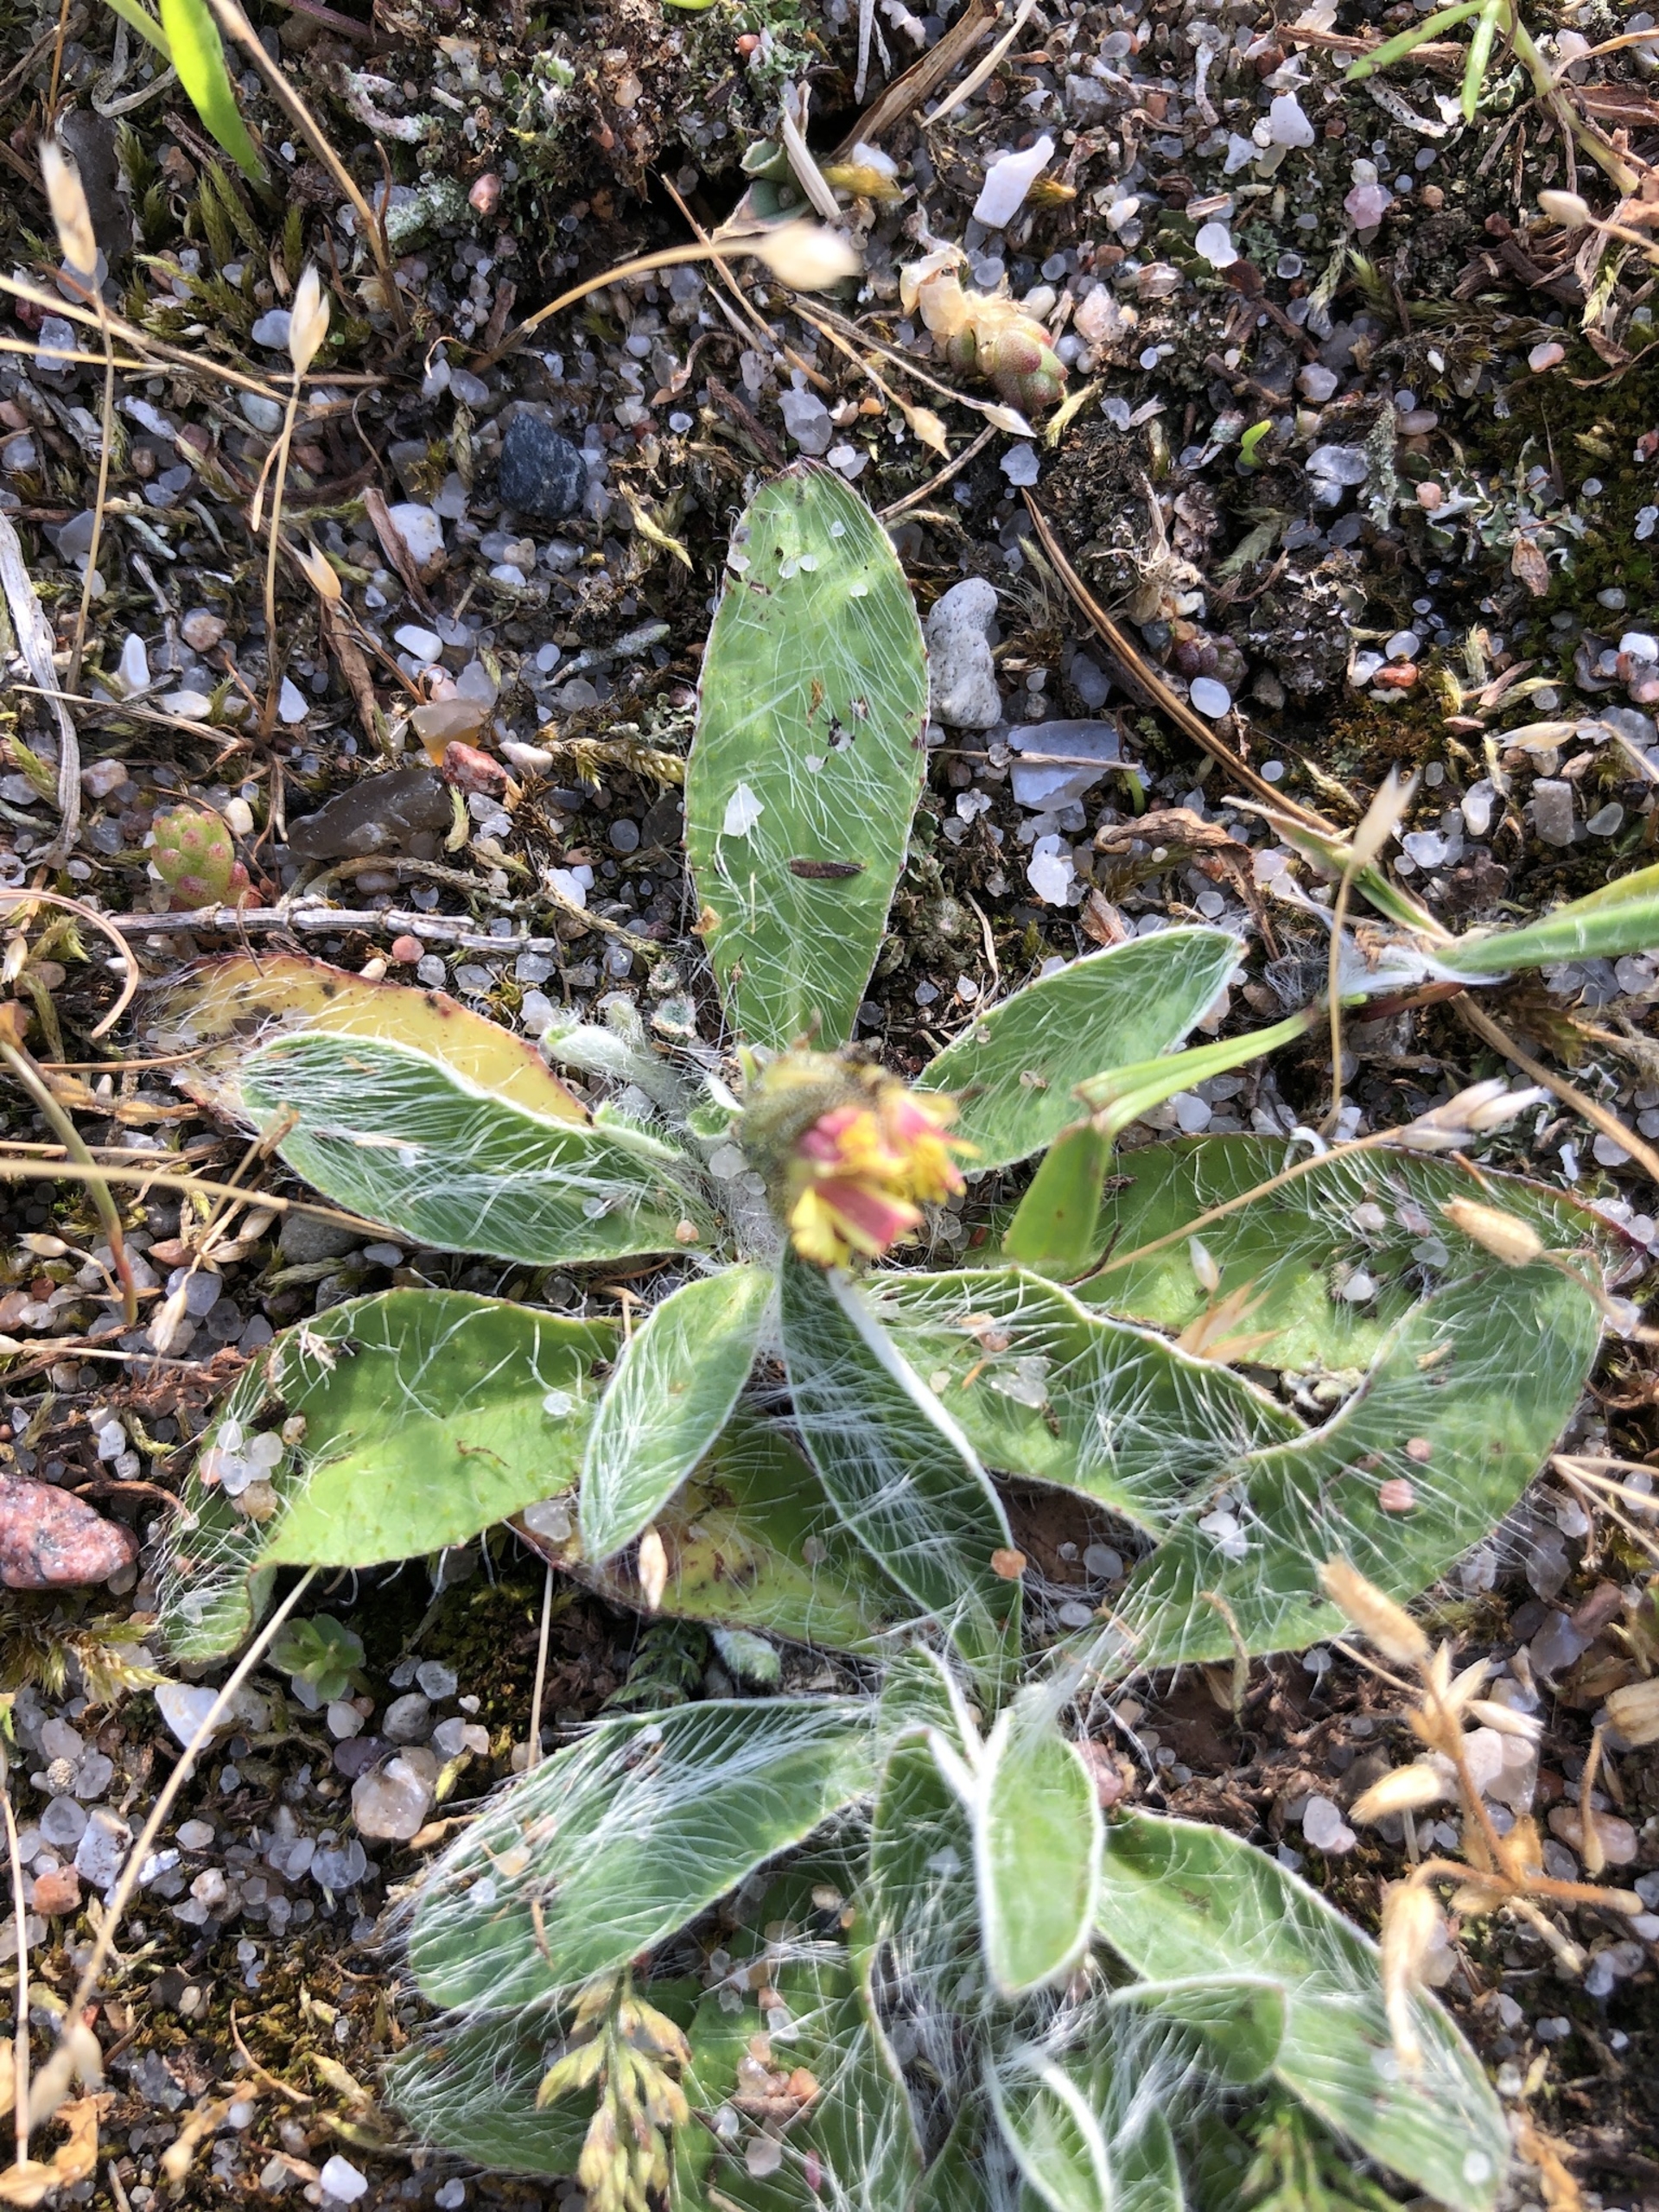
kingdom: Plantae
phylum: Tracheophyta
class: Magnoliopsida
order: Asterales
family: Asteraceae
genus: Pilosella
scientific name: Pilosella officinarum
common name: Håret høgeurt
